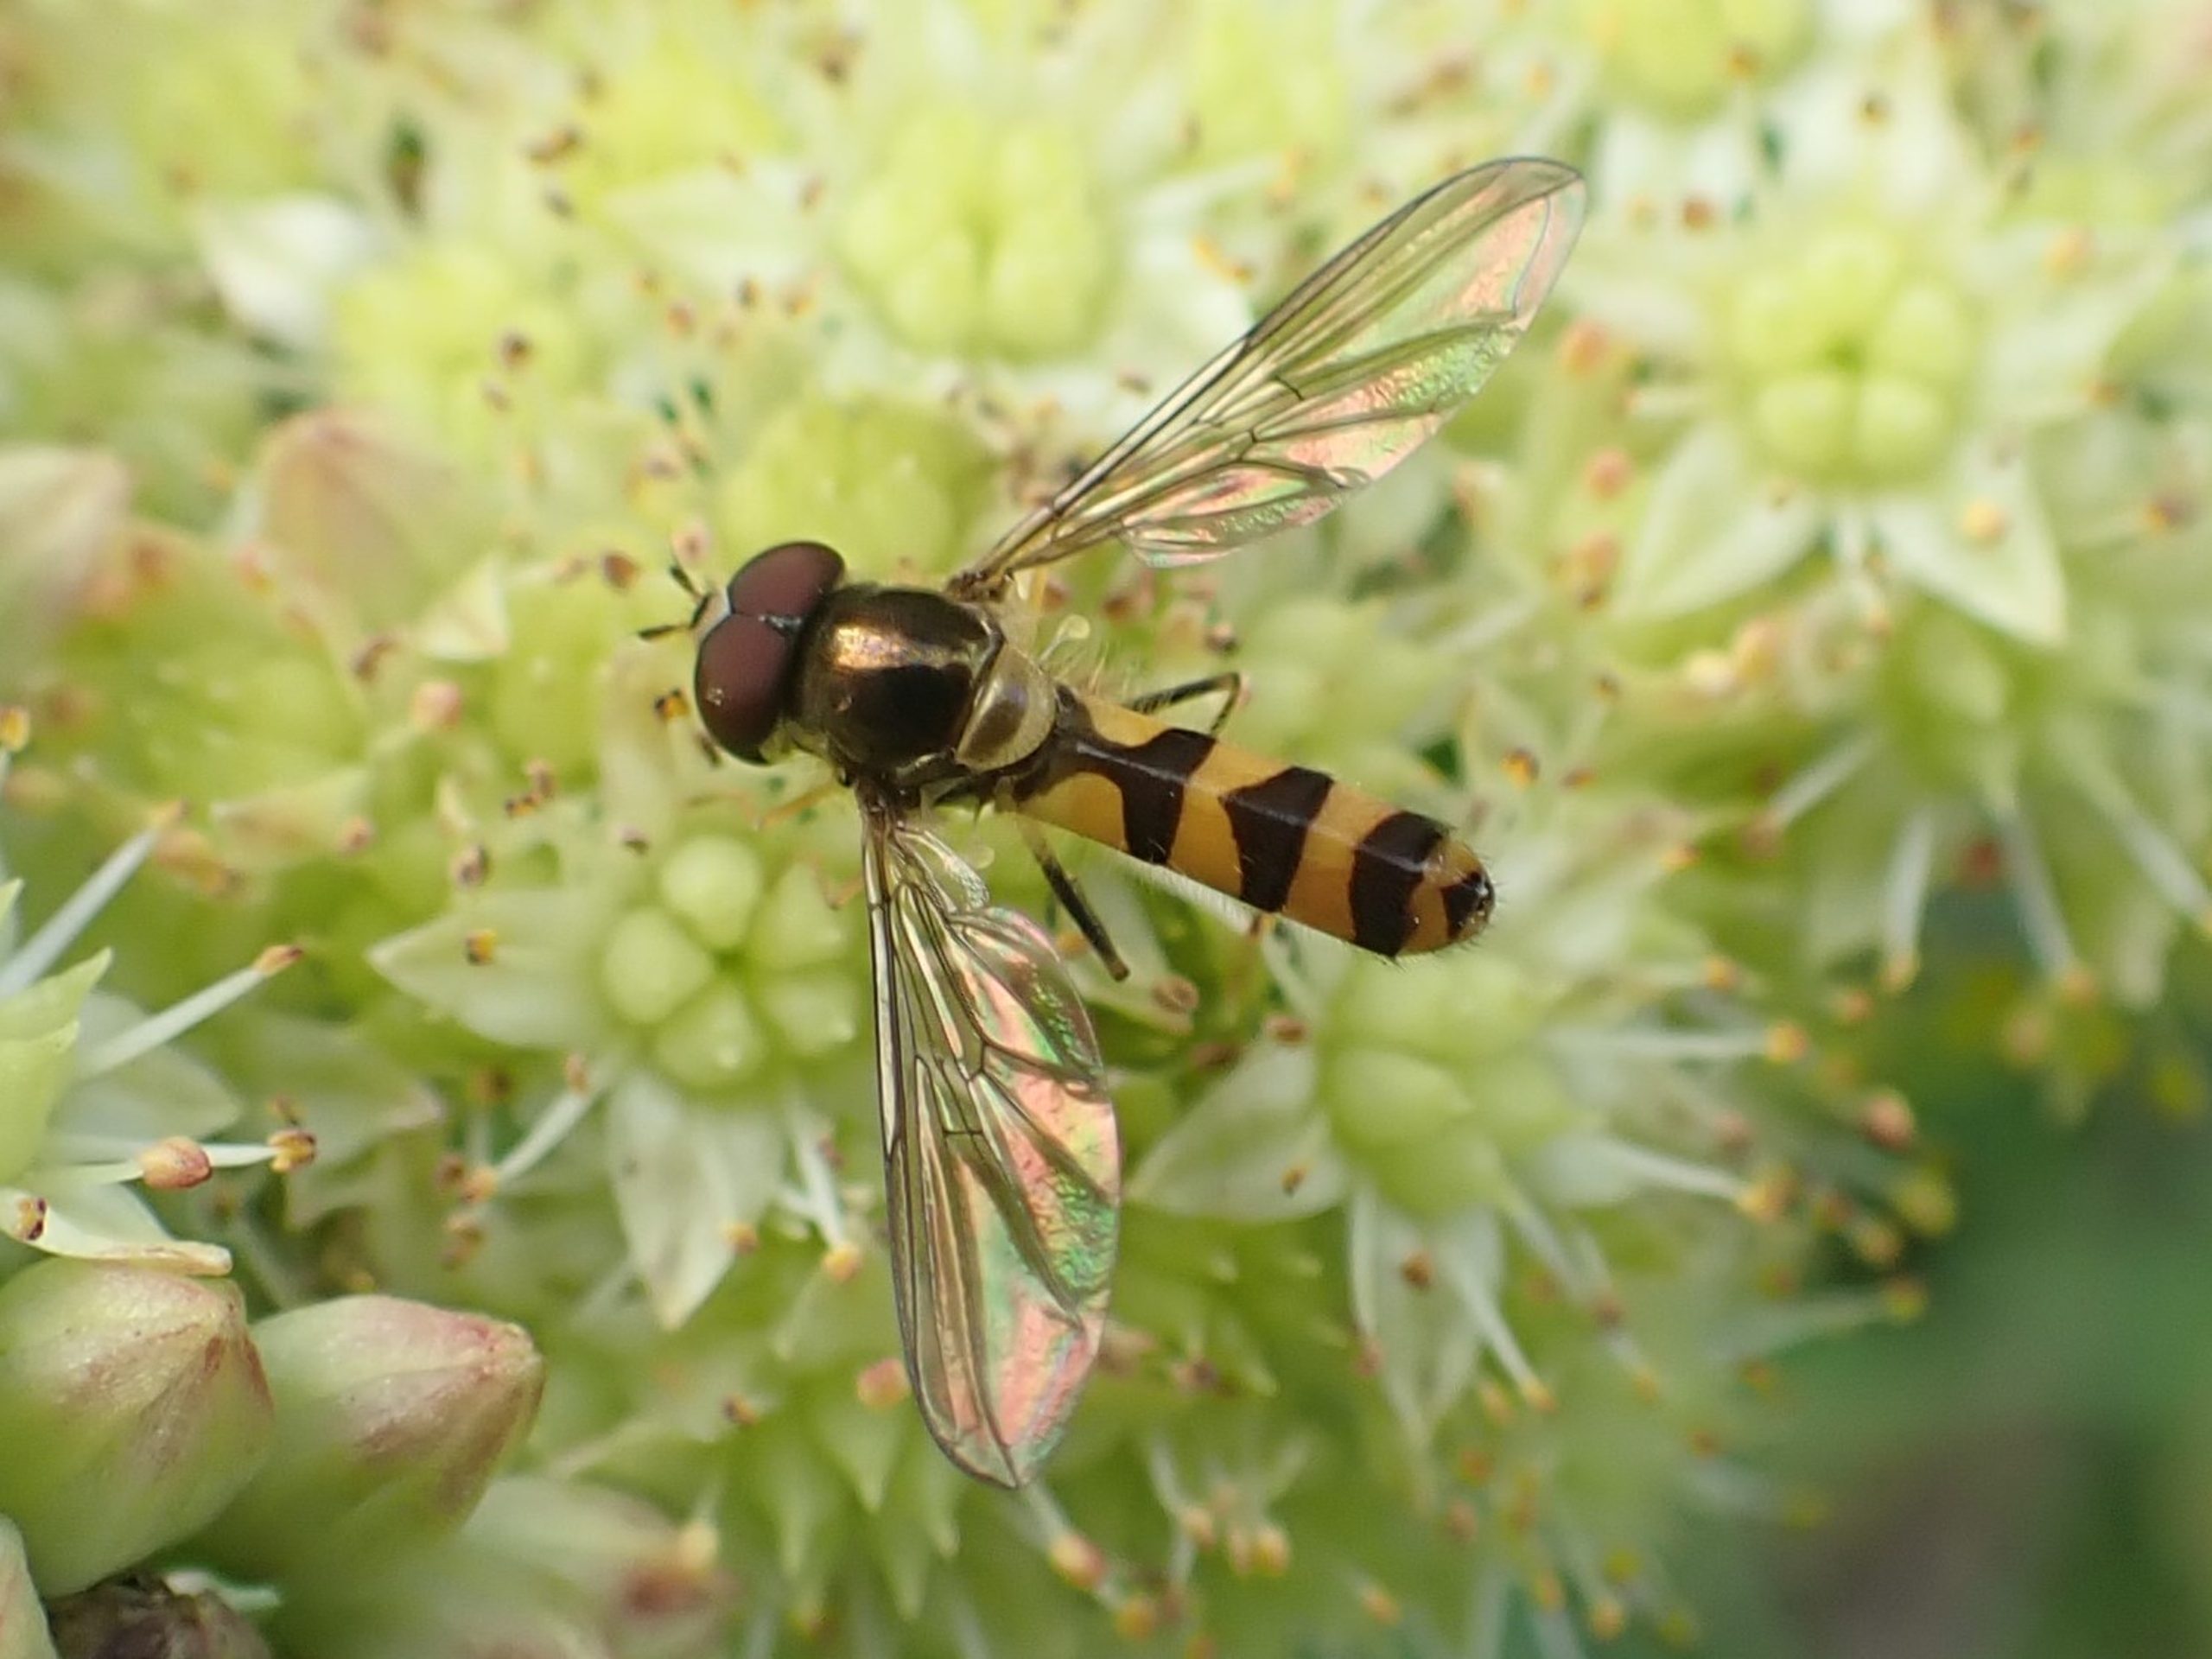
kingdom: Animalia
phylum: Arthropoda
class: Insecta
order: Diptera
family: Syrphidae
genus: Meliscaeva
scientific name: Meliscaeva cinctella
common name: Bælte-svirreflue
